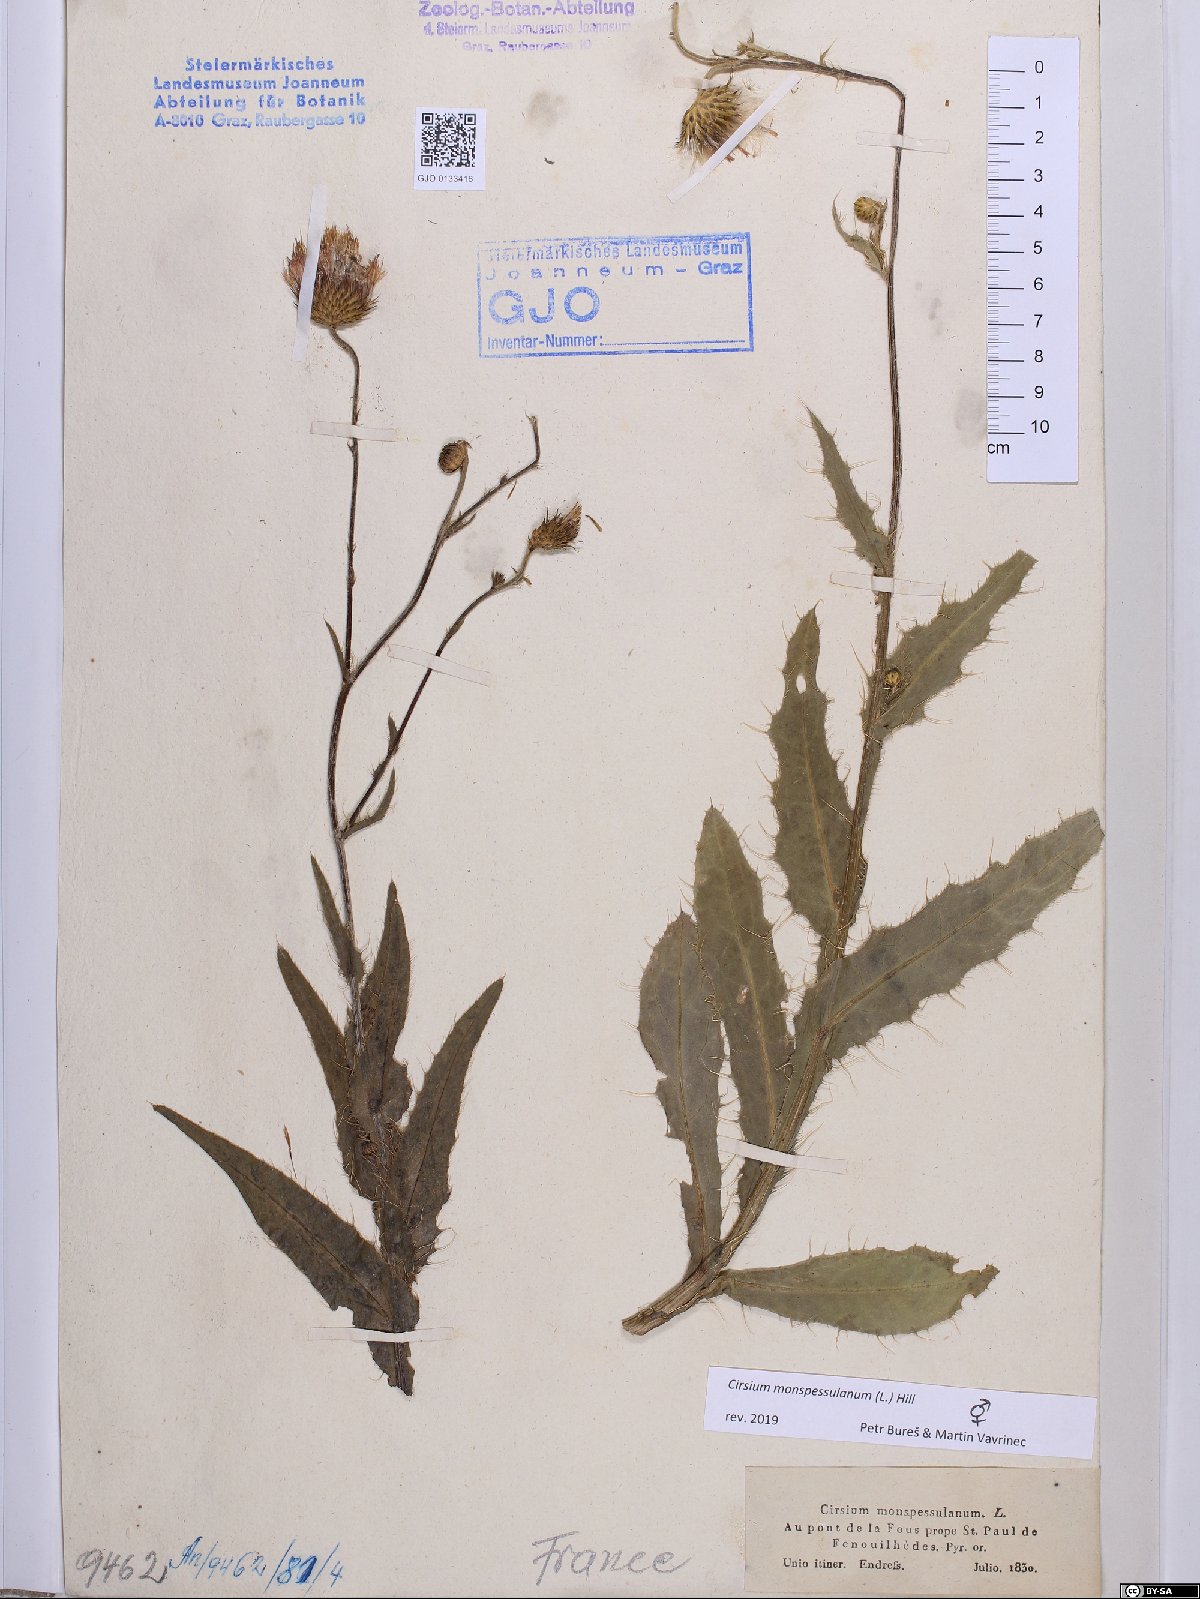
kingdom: Plantae
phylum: Tracheophyta
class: Magnoliopsida
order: Asterales
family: Asteraceae
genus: Cirsium
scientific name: Cirsium monspessulanum
